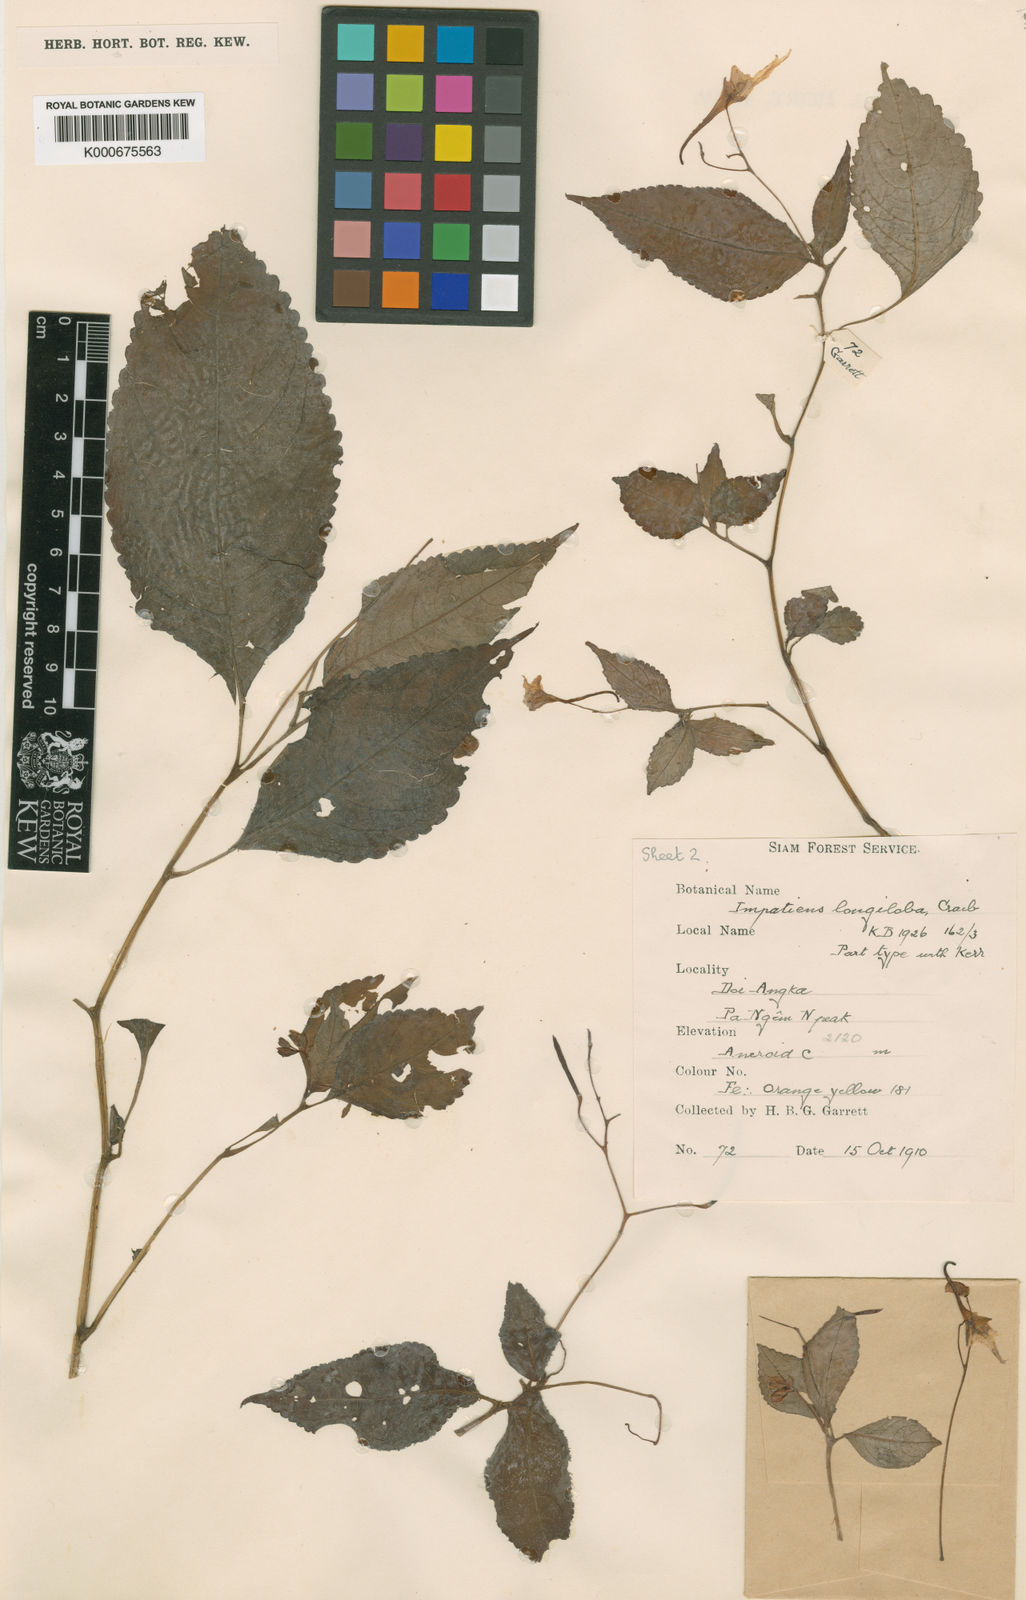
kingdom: Plantae
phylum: Tracheophyta
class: Magnoliopsida
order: Ericales
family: Balsaminaceae
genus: Impatiens
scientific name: Impatiens longiloba
